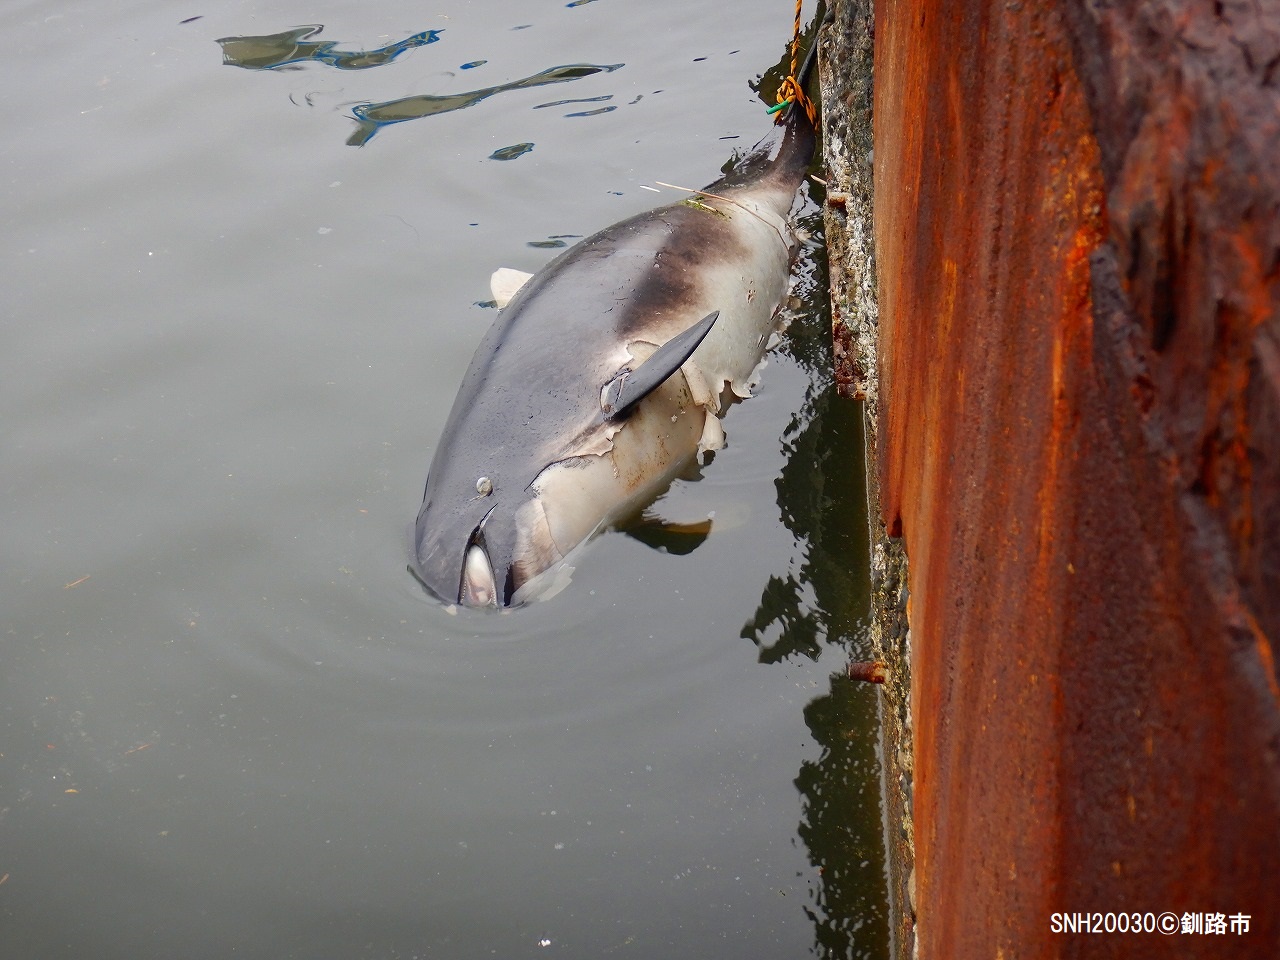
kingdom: Animalia
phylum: Chordata
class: Mammalia
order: Cetacea
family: Phocoenidae
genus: Phocoena
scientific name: Phocoena phocoena
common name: Harbour porpoise
